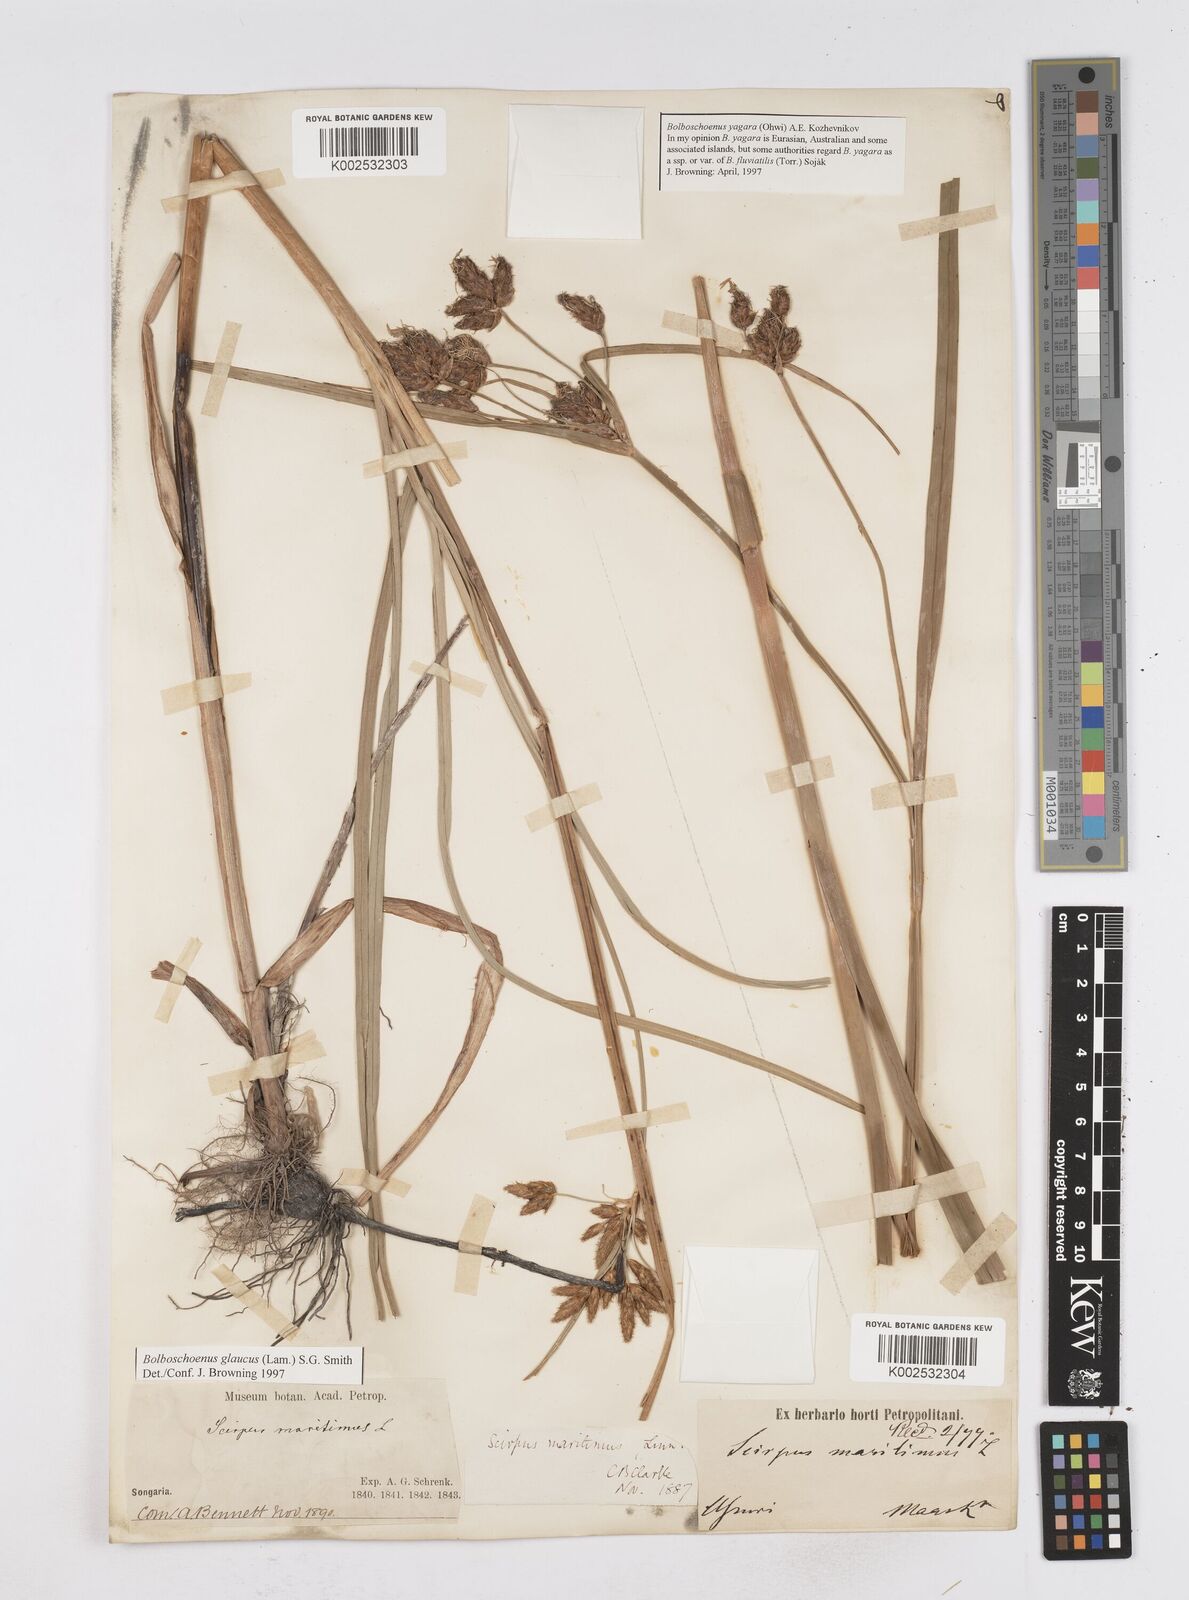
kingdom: Plantae
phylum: Tracheophyta
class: Liliopsida
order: Poales
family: Cyperaceae
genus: Bolboschoenus
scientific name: Bolboschoenus maritimus
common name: Sea club-rush
